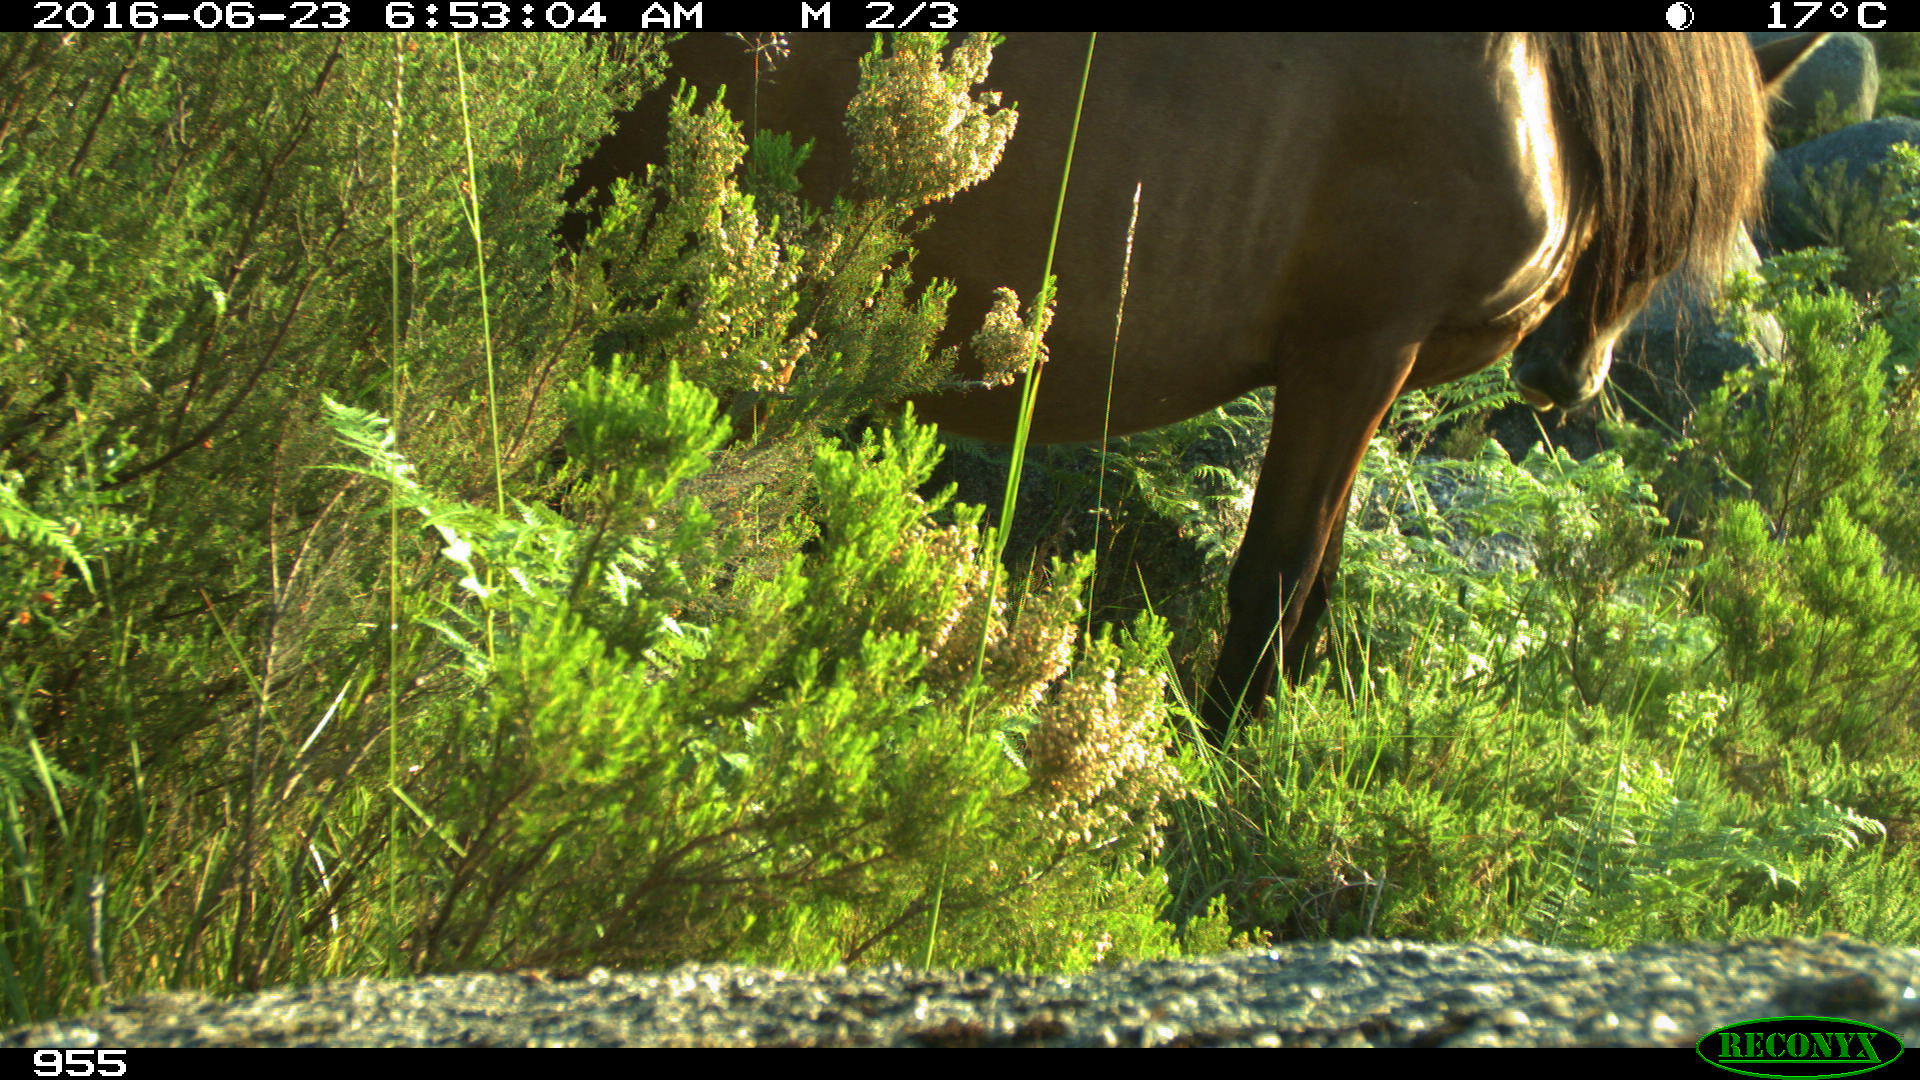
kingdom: Animalia
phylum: Chordata
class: Mammalia
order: Perissodactyla
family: Equidae
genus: Equus
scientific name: Equus caballus
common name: Horse
